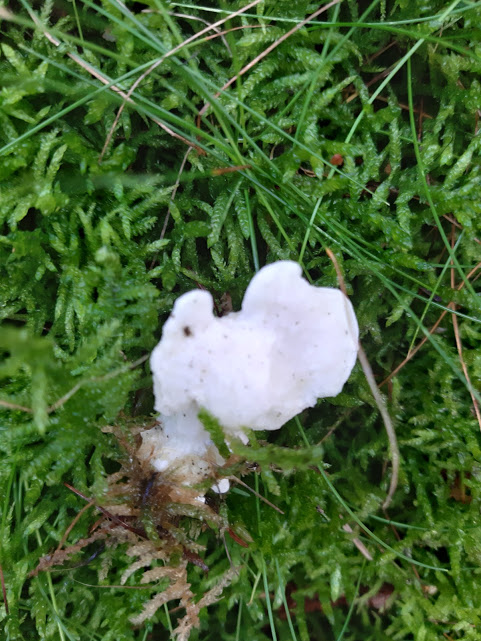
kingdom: Fungi
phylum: Basidiomycota
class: Agaricomycetes
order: Polyporales
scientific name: Polyporales
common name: poresvampordenen
